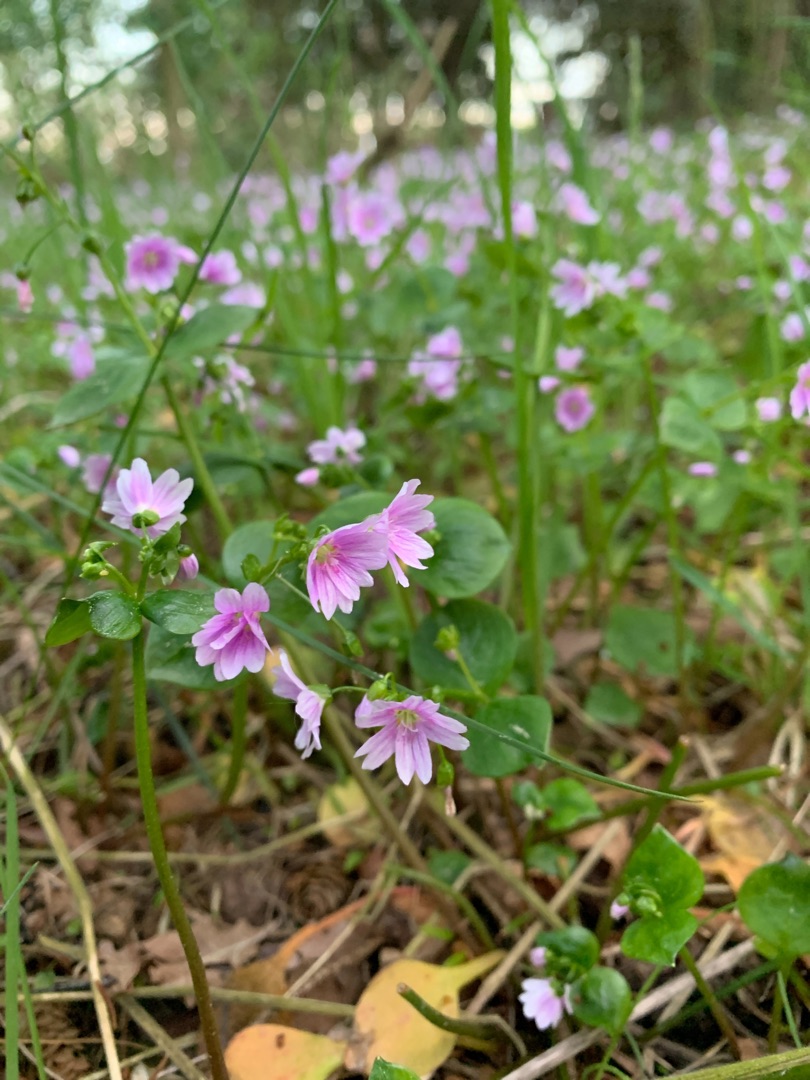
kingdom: Plantae
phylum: Tracheophyta
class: Magnoliopsida
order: Caryophyllales
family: Montiaceae
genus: Claytonia
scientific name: Claytonia sibirica
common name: Sibirisk vinterportulak
